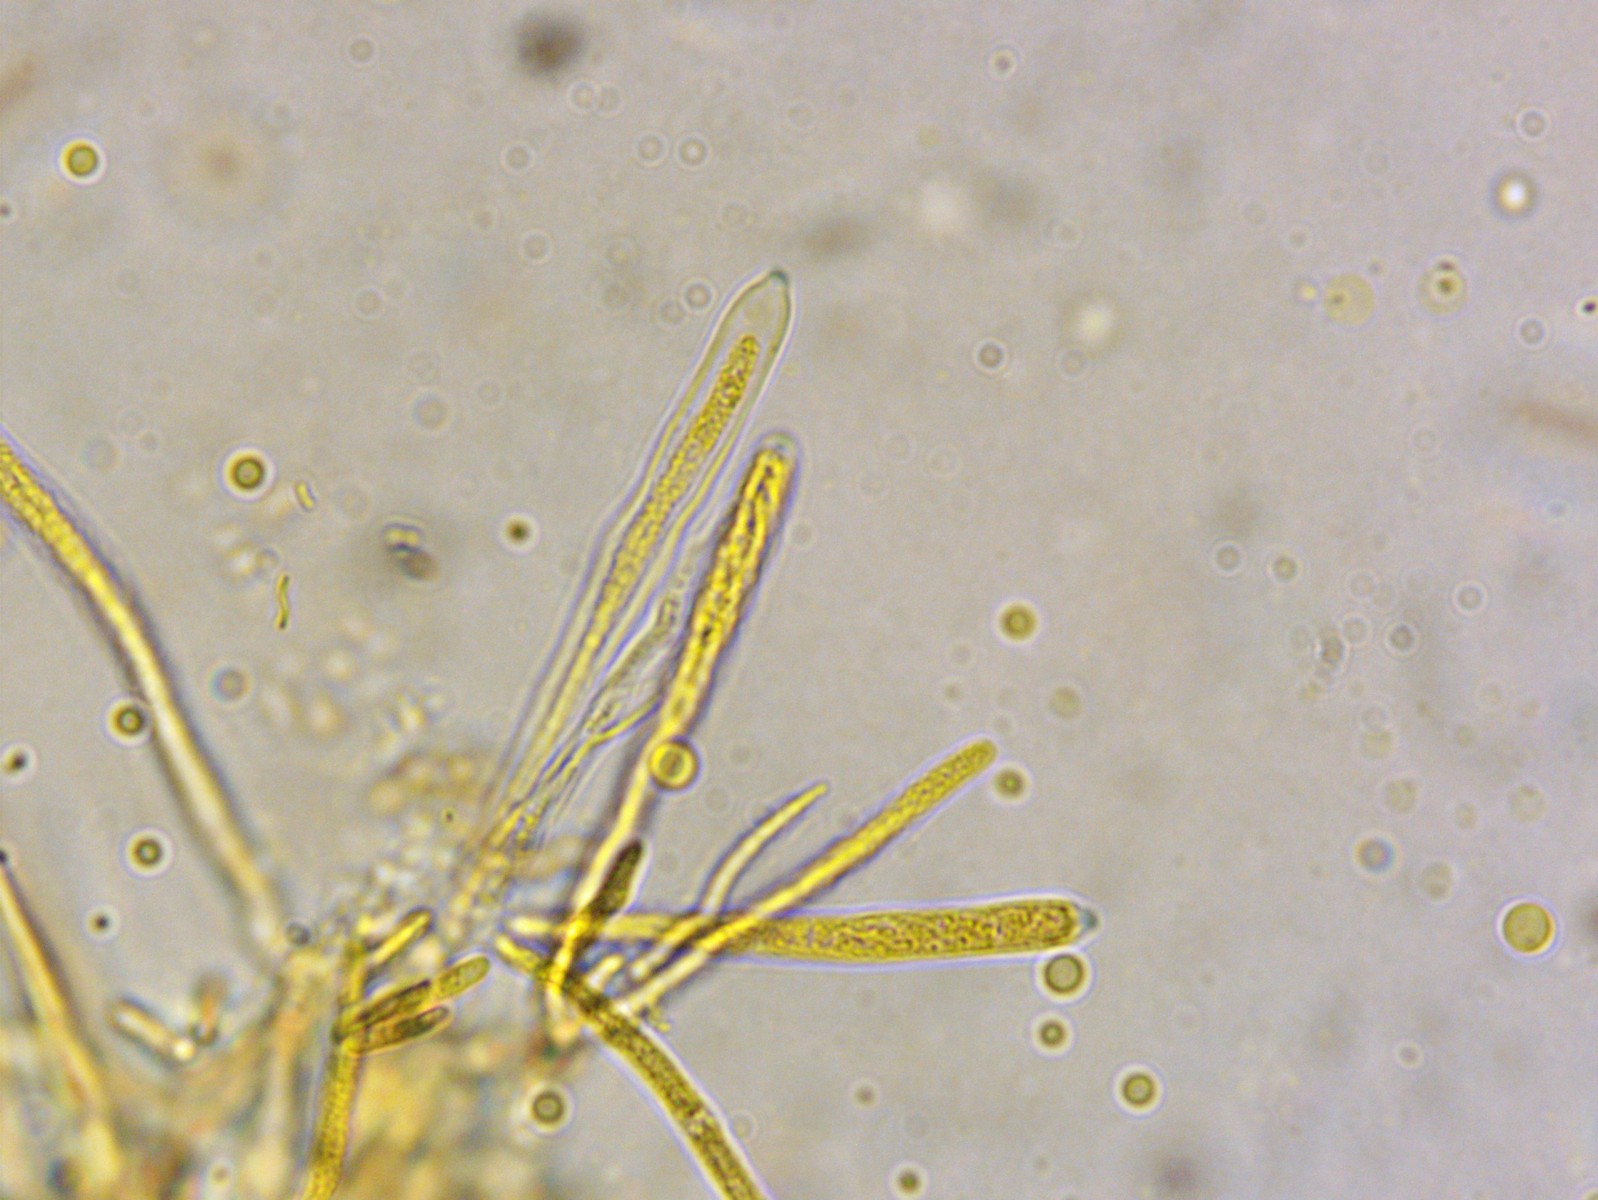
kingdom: Fungi
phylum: Ascomycota
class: Leotiomycetes
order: Helotiales
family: Lachnaceae
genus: Lachnum
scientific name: Lachnum controversum
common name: tagrør-frynseskive
